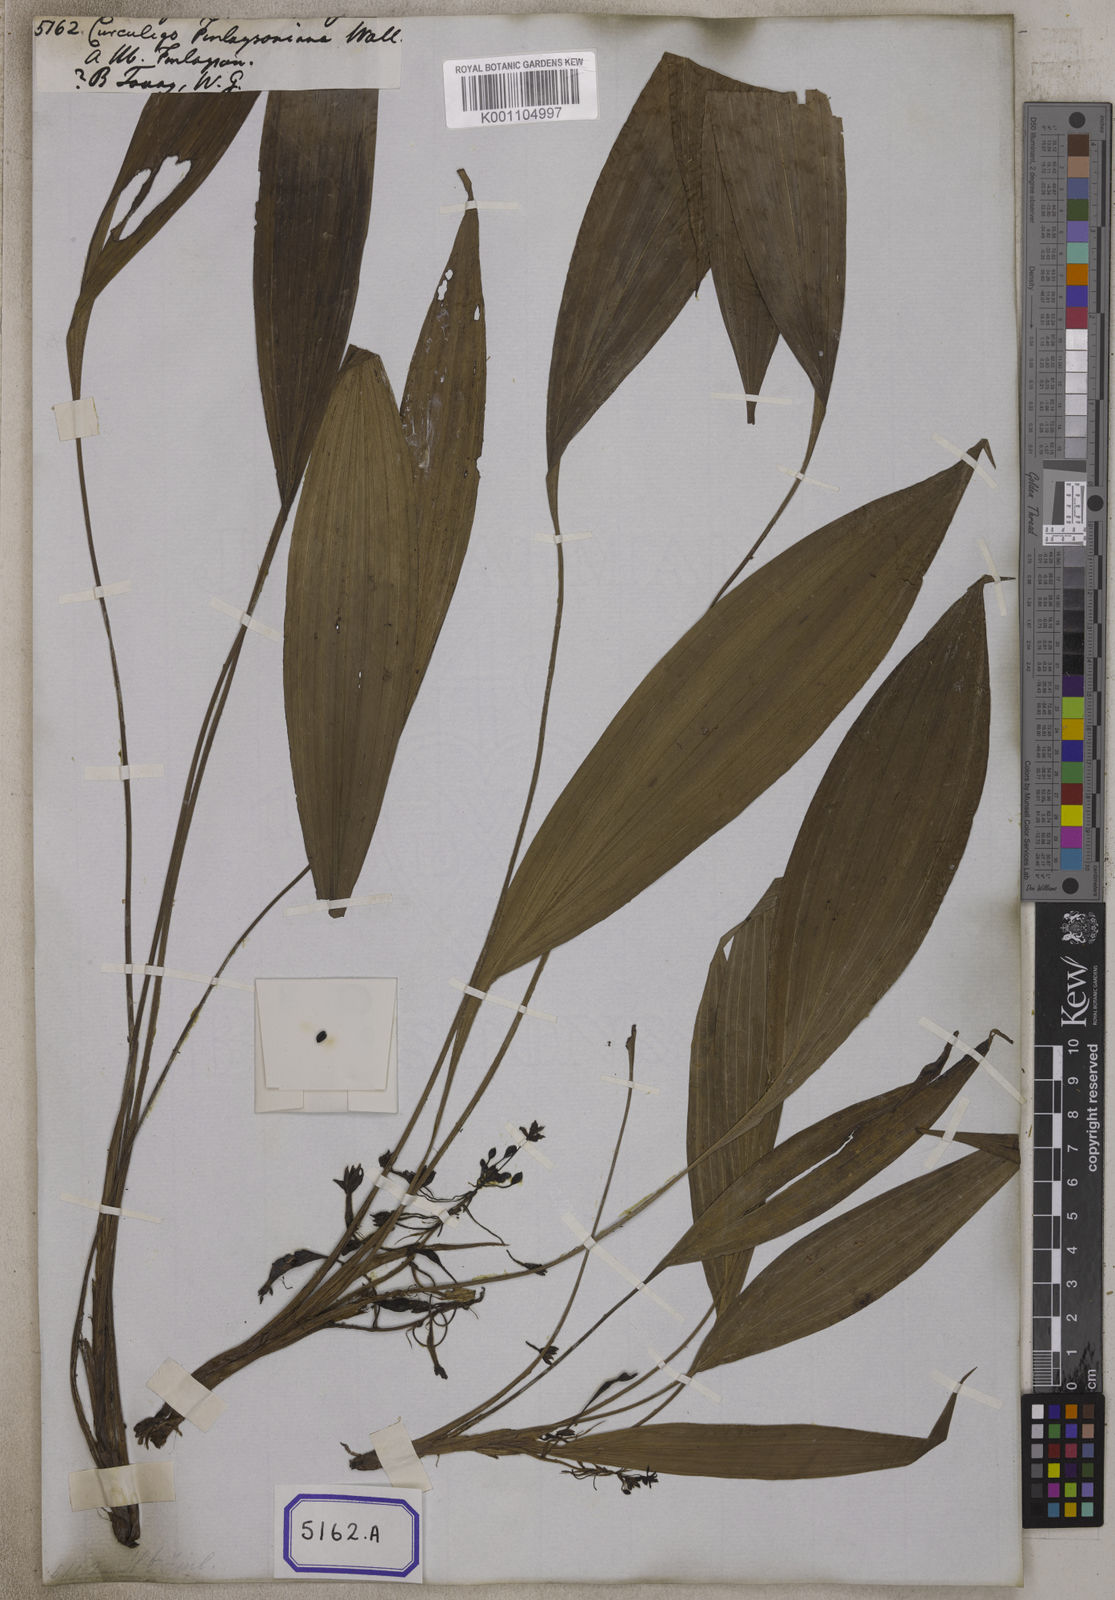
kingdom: Plantae
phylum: Tracheophyta
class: Liliopsida
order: Asparagales
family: Hypoxidaceae
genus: Curculigo
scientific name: Curculigo
